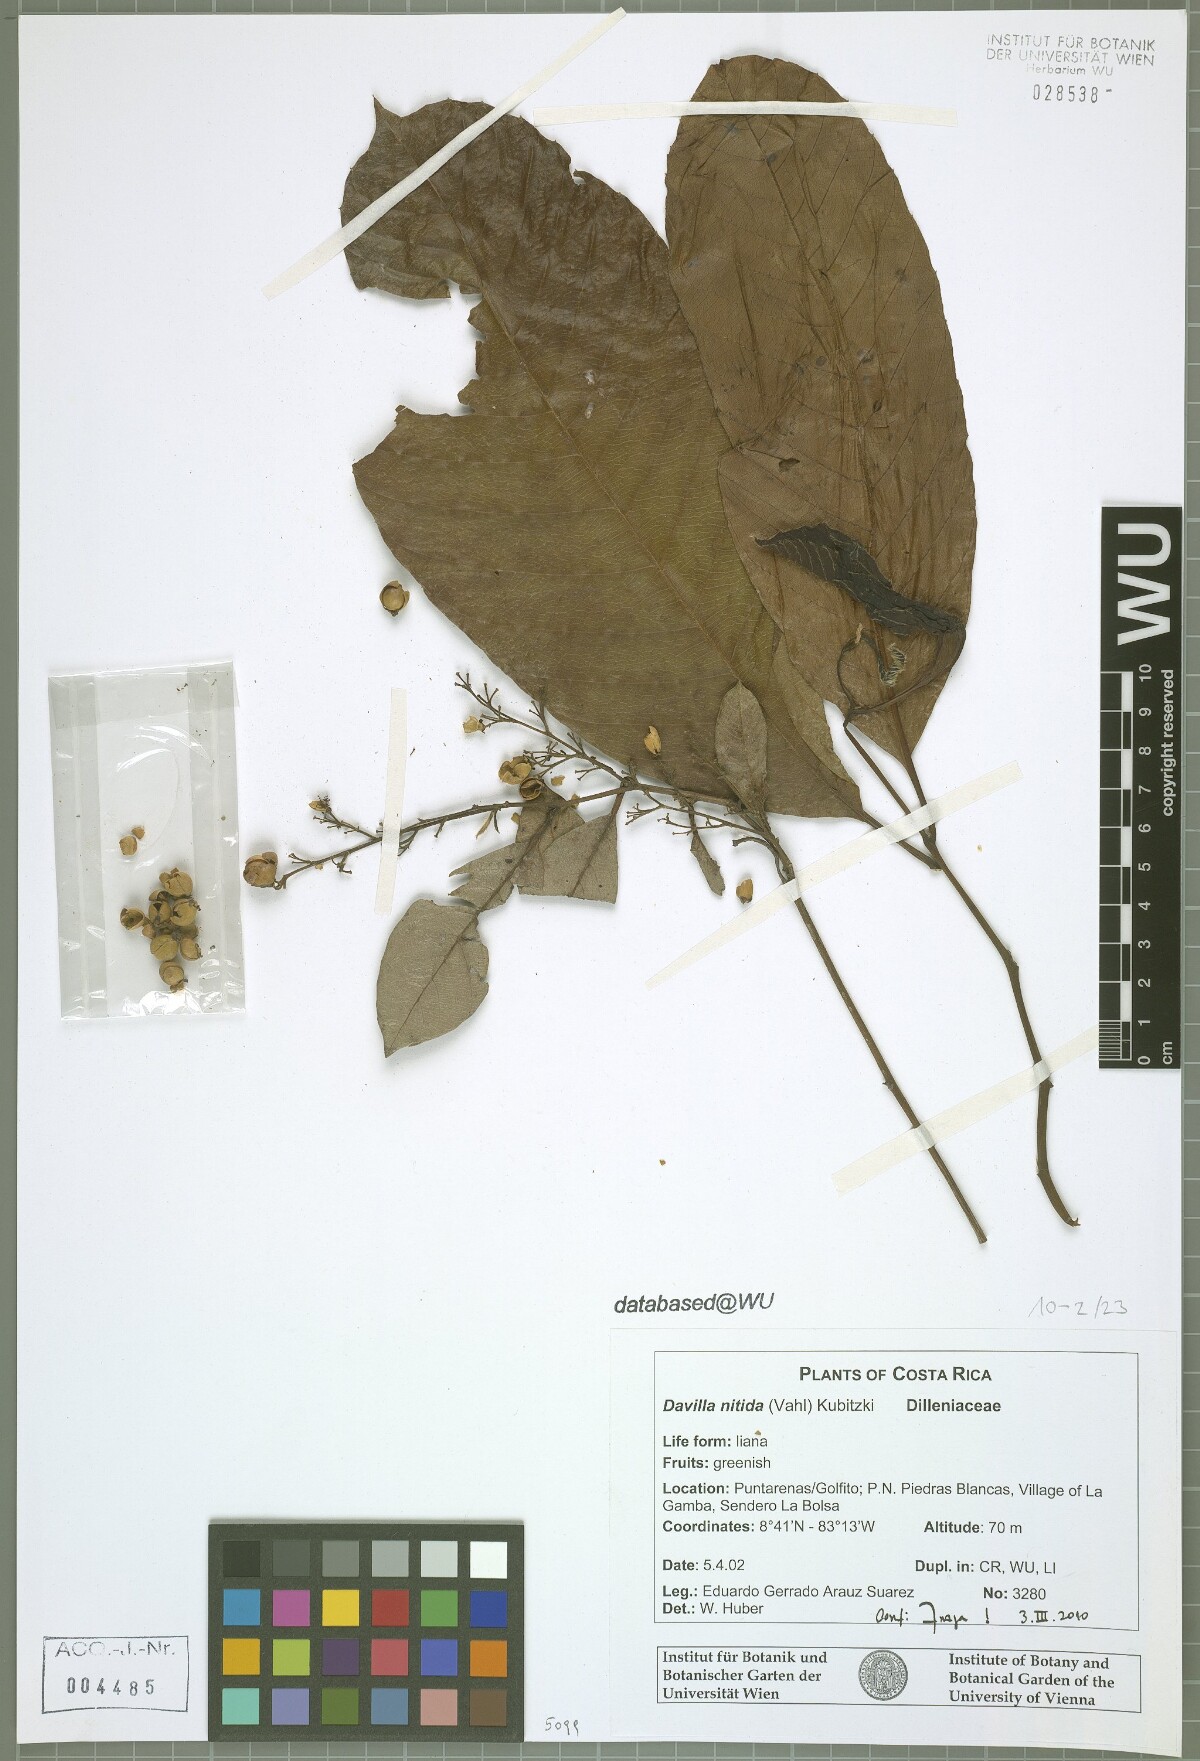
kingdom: Plantae
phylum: Tracheophyta
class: Magnoliopsida
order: Dilleniales
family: Dilleniaceae
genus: Davilla
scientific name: Davilla nitida
